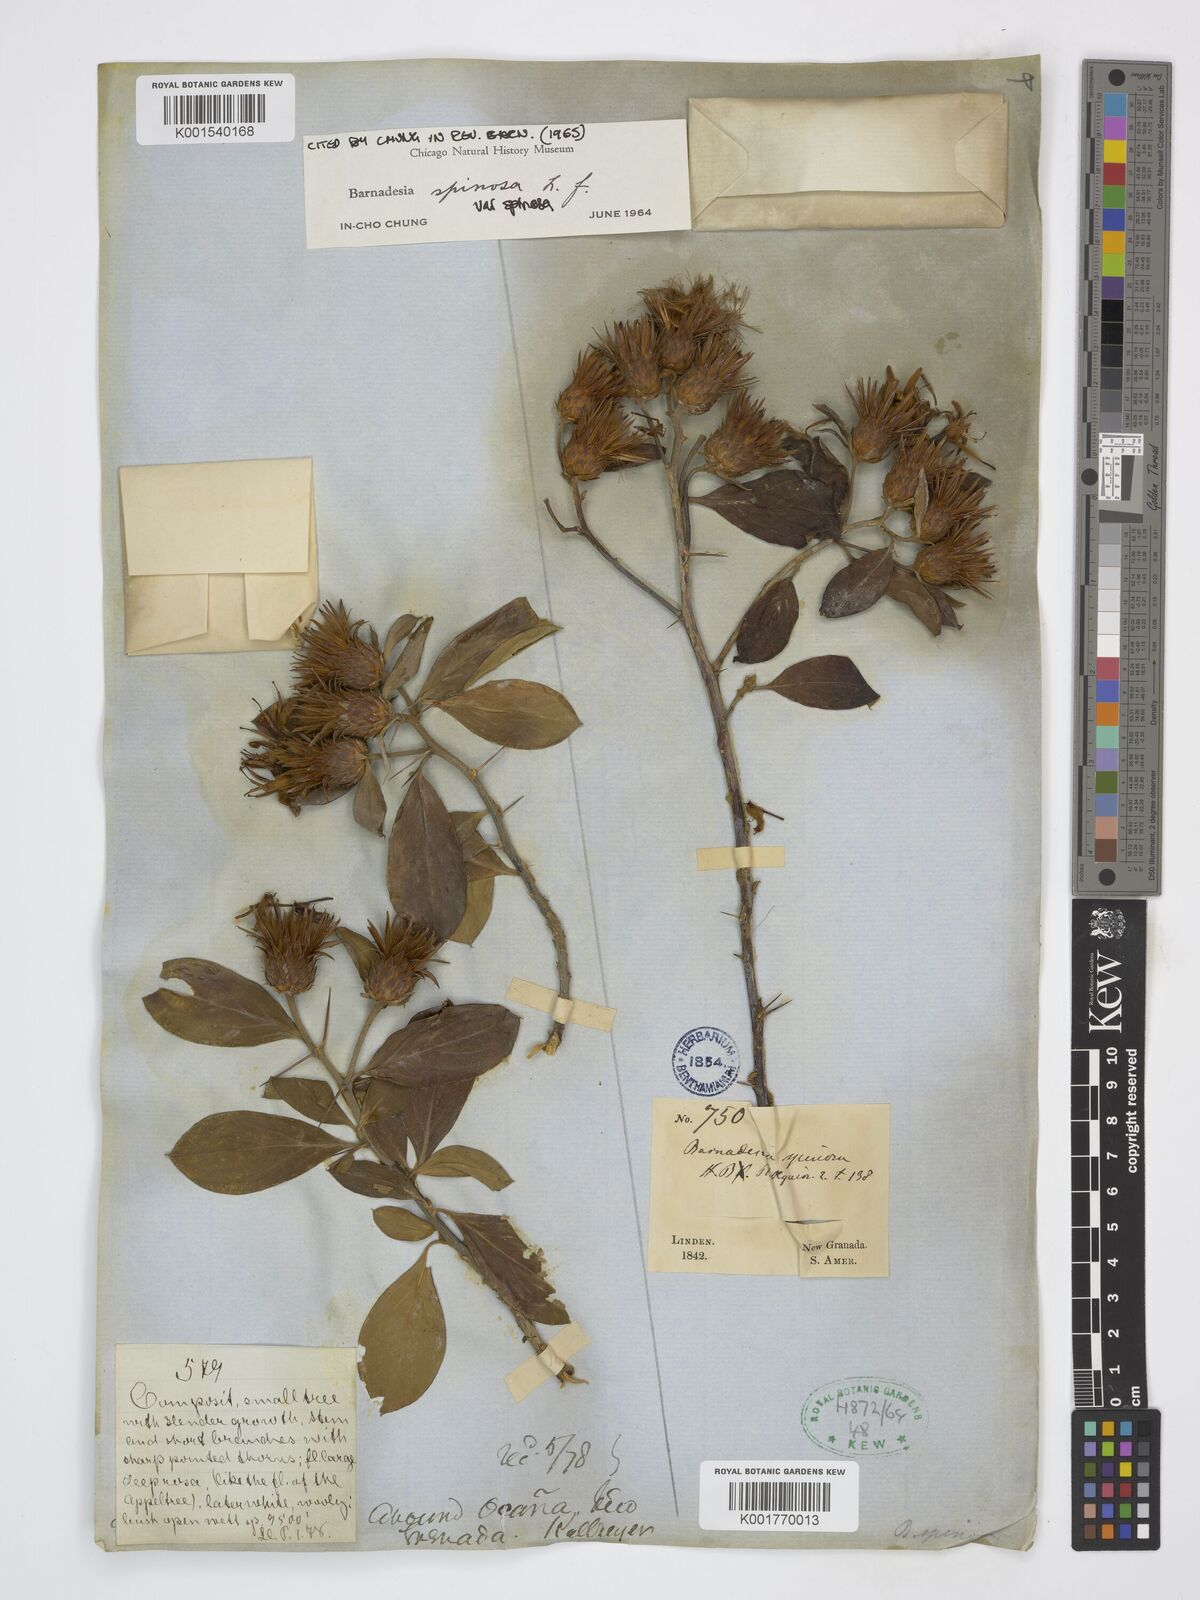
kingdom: Plantae
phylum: Tracheophyta
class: Magnoliopsida
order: Asterales
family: Asteraceae
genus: Barnadesia
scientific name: Barnadesia spinosa
